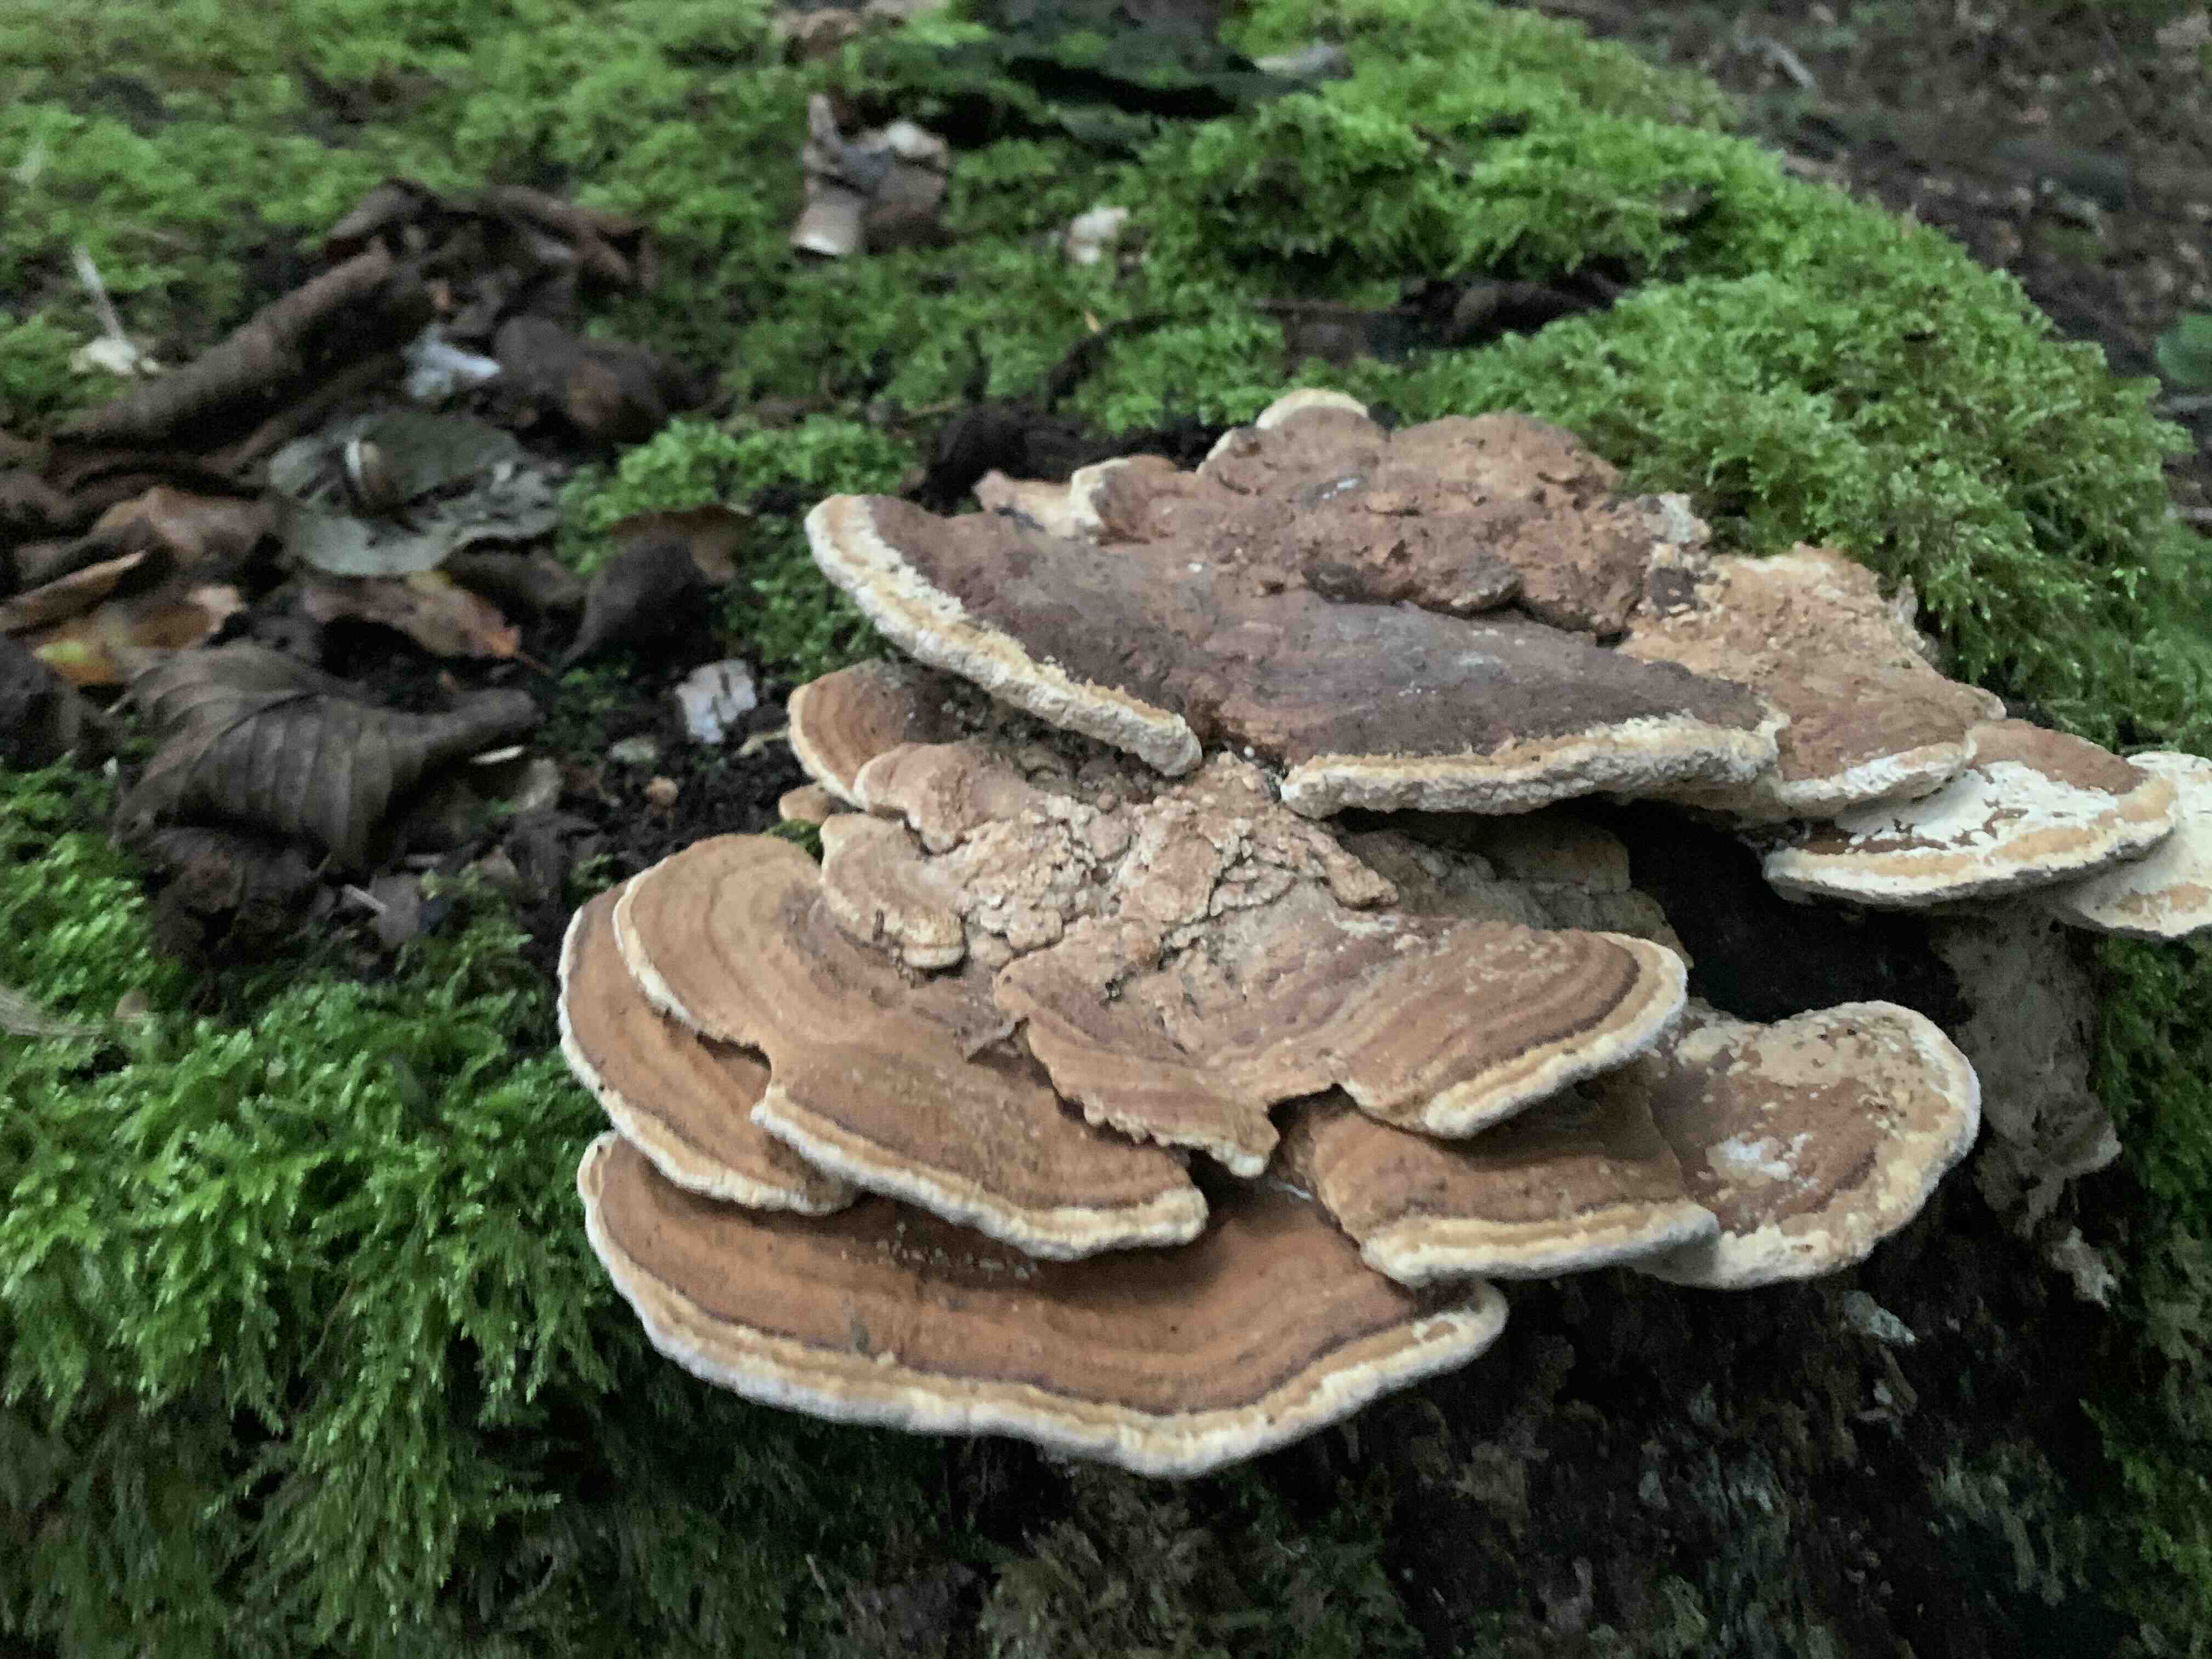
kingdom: Fungi
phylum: Basidiomycota
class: Agaricomycetes
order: Polyporales
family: Fomitopsidaceae
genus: Daedalea
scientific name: Daedalea quercina
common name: ege-labyrintsvamp
